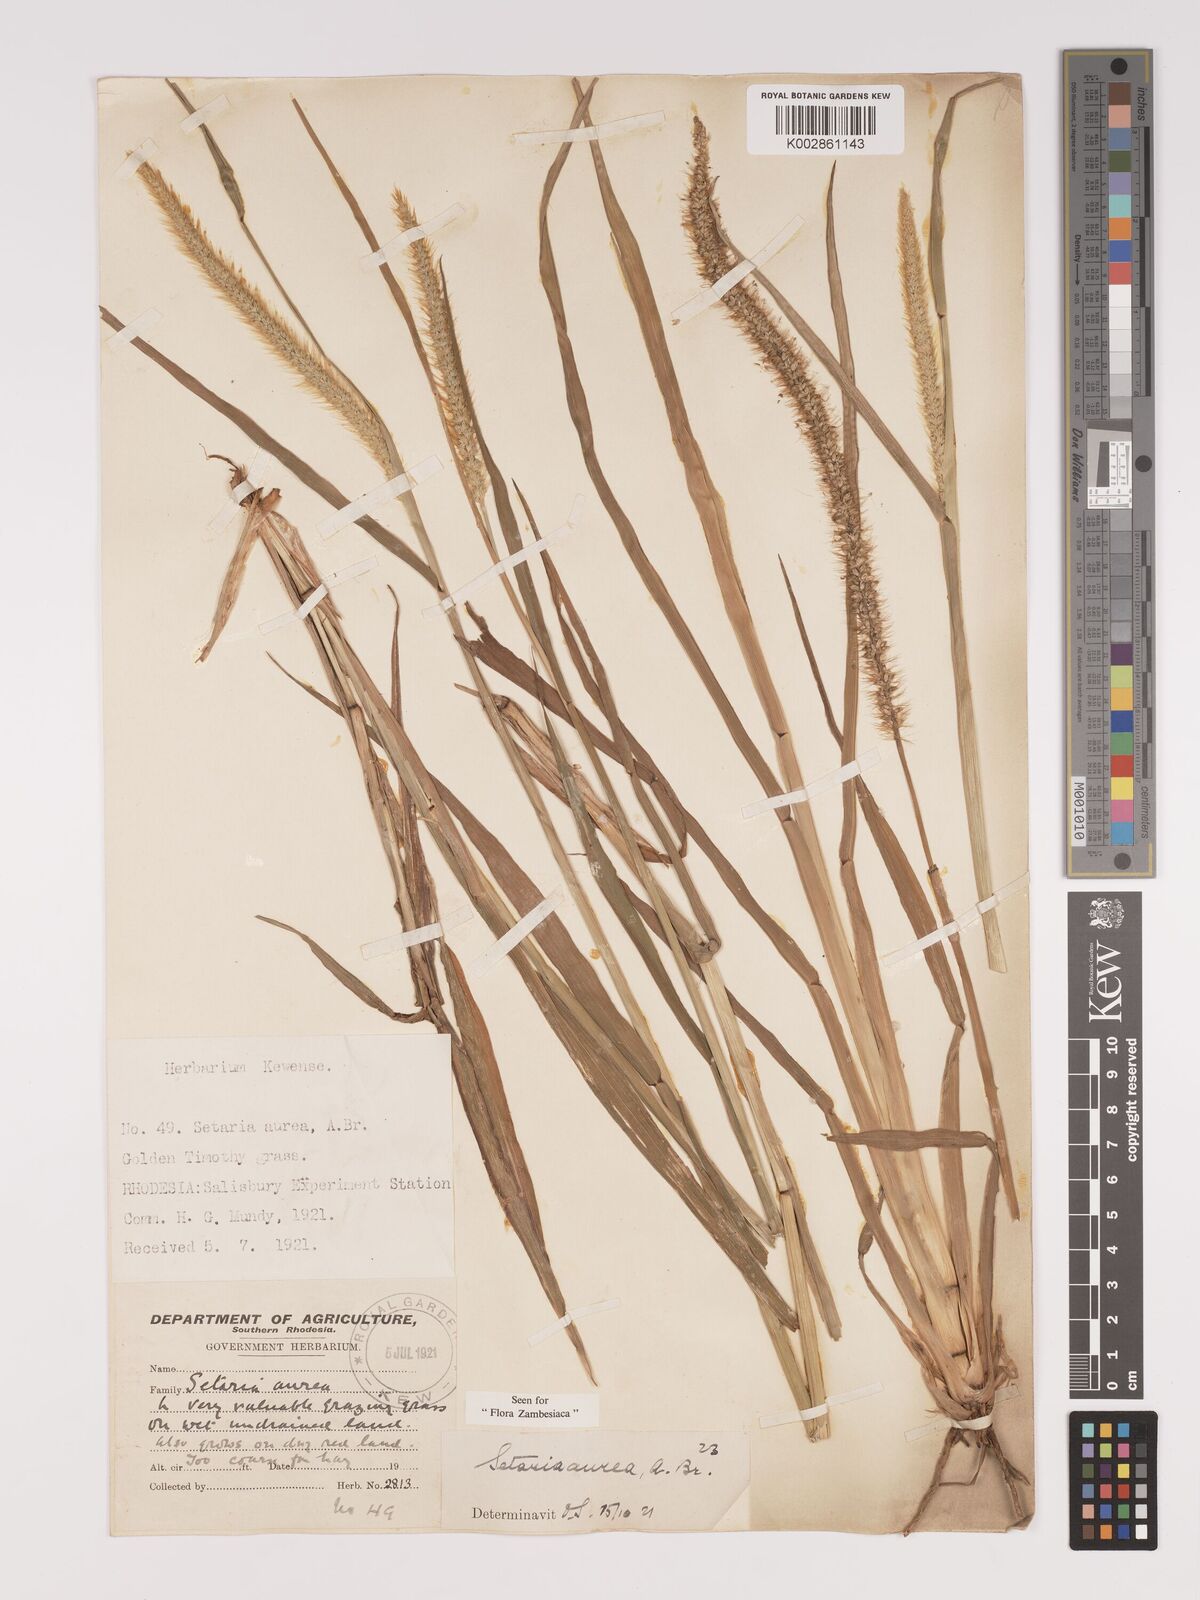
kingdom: Plantae
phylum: Tracheophyta
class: Liliopsida
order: Poales
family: Poaceae
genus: Setaria
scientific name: Setaria sphacelata
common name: African bristlegrass
